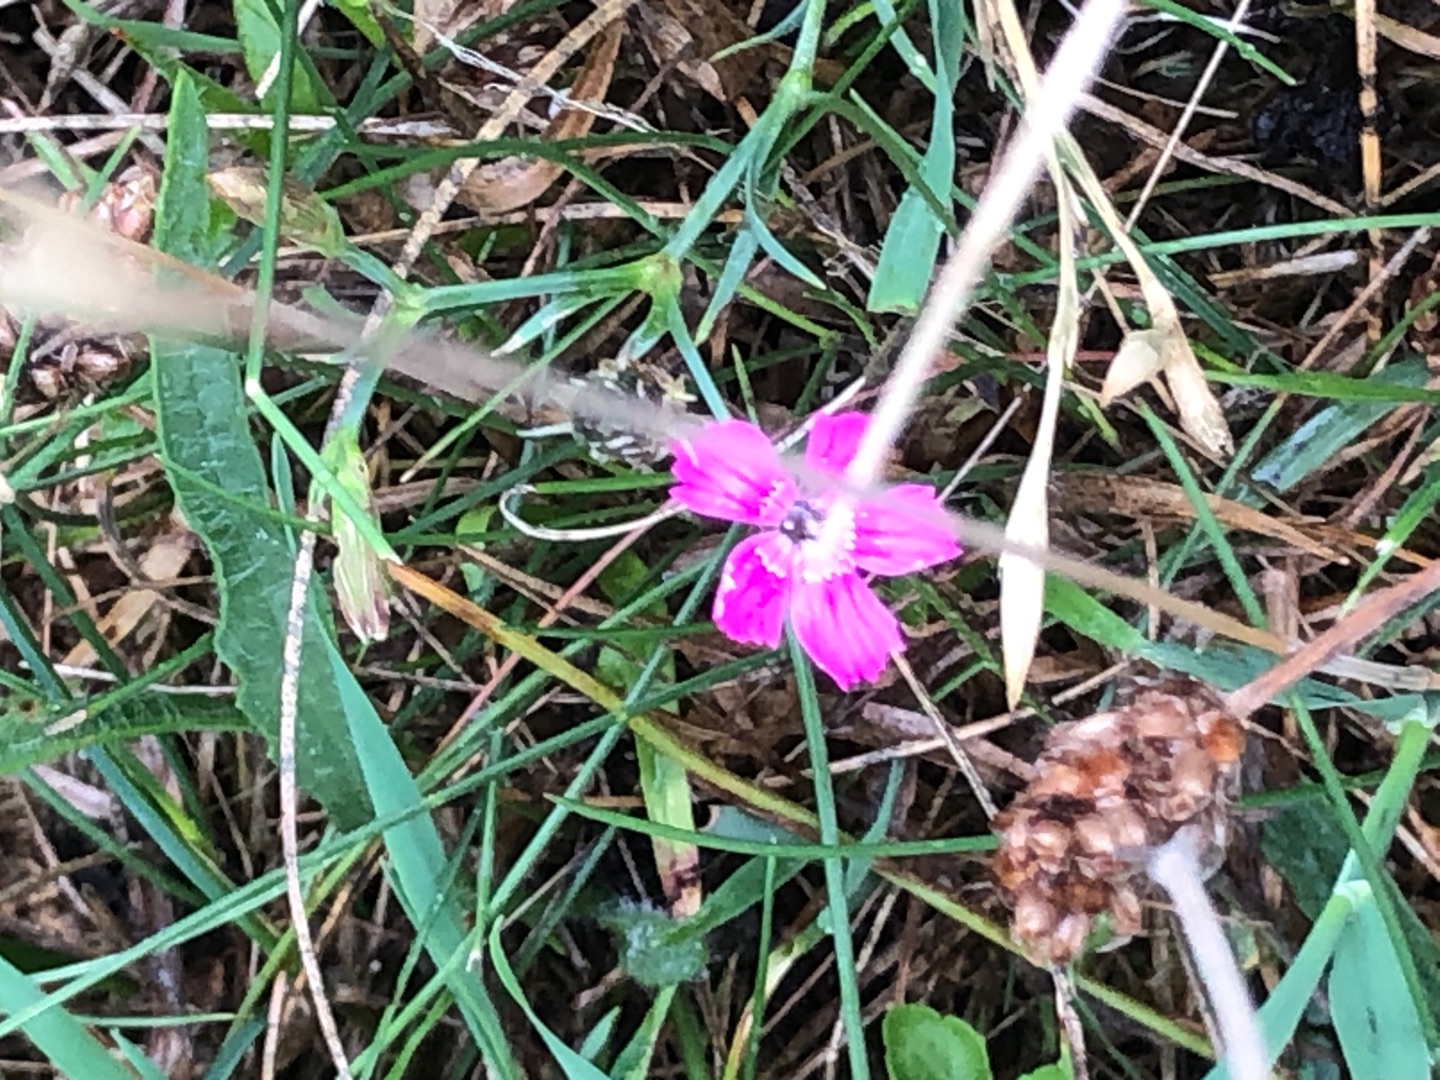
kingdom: Plantae
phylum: Tracheophyta
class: Magnoliopsida
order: Caryophyllales
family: Caryophyllaceae
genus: Dianthus
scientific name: Dianthus deltoides
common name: Bakke-nellike
